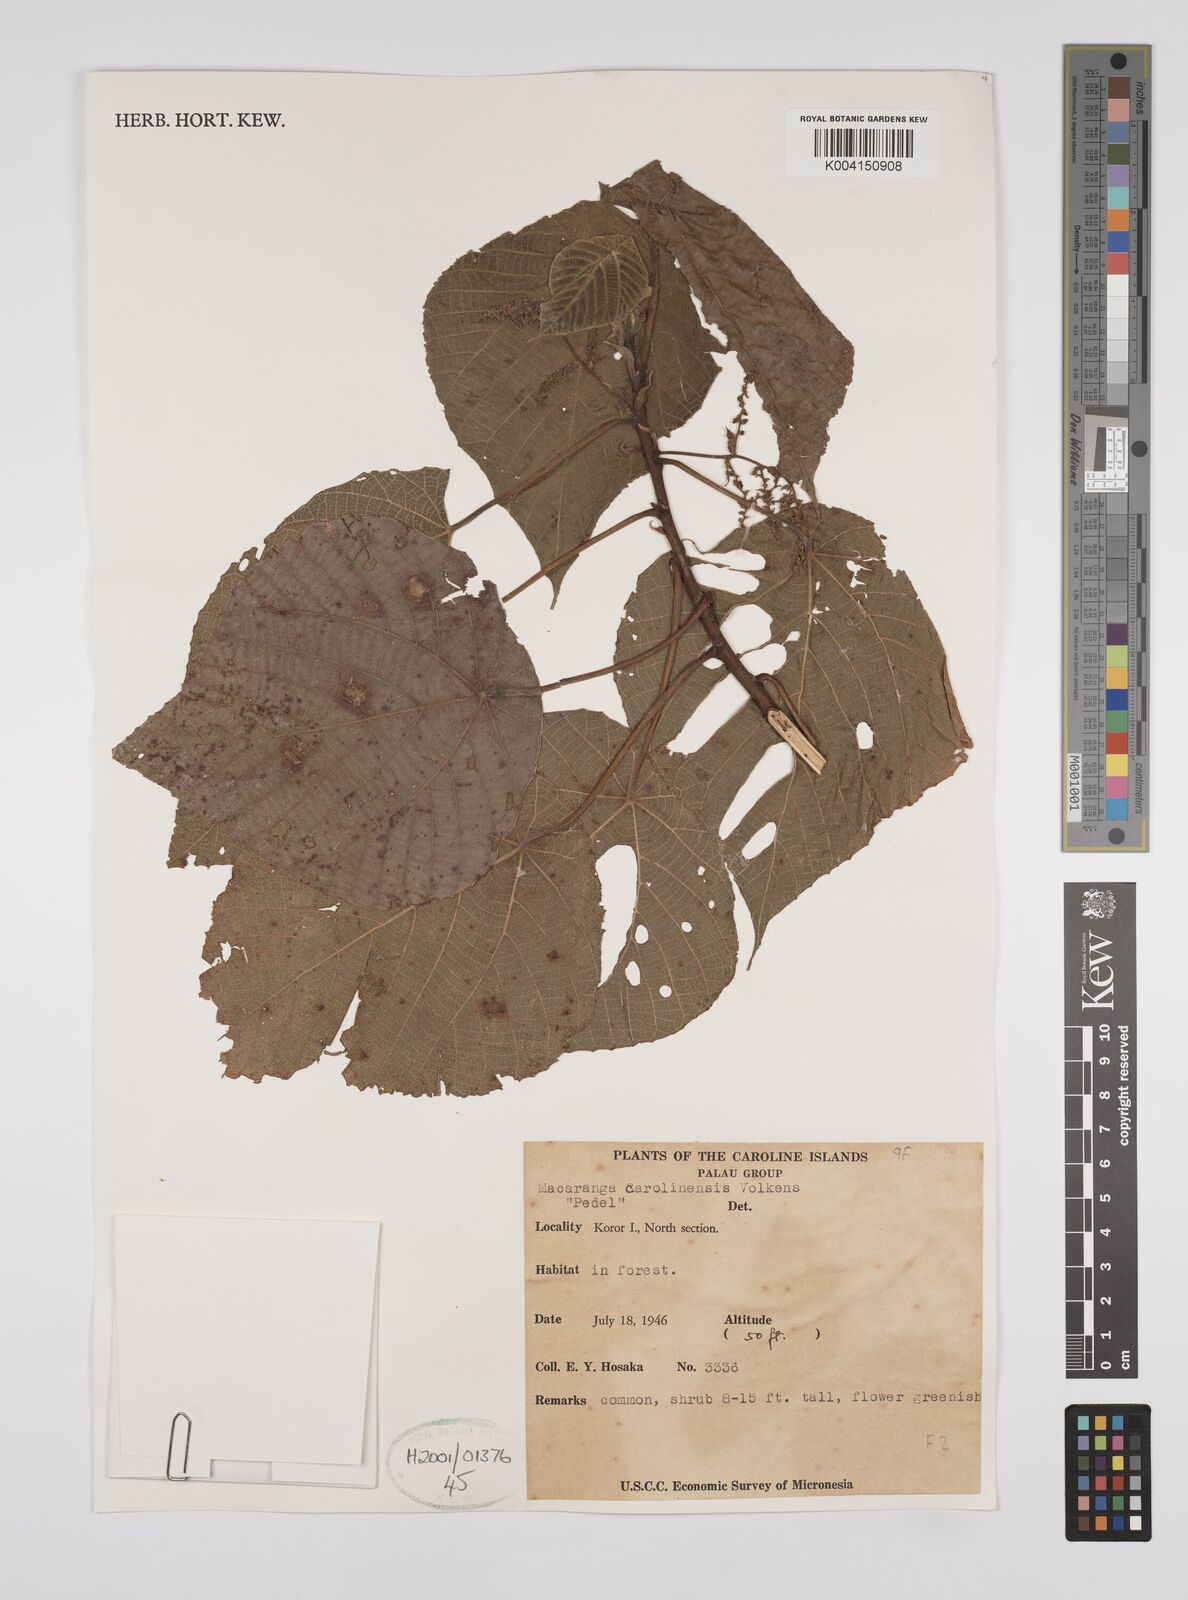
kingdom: Plantae
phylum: Tracheophyta
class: Magnoliopsida
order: Malpighiales
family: Euphorbiaceae
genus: Macaranga
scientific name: Macaranga carolinensis
